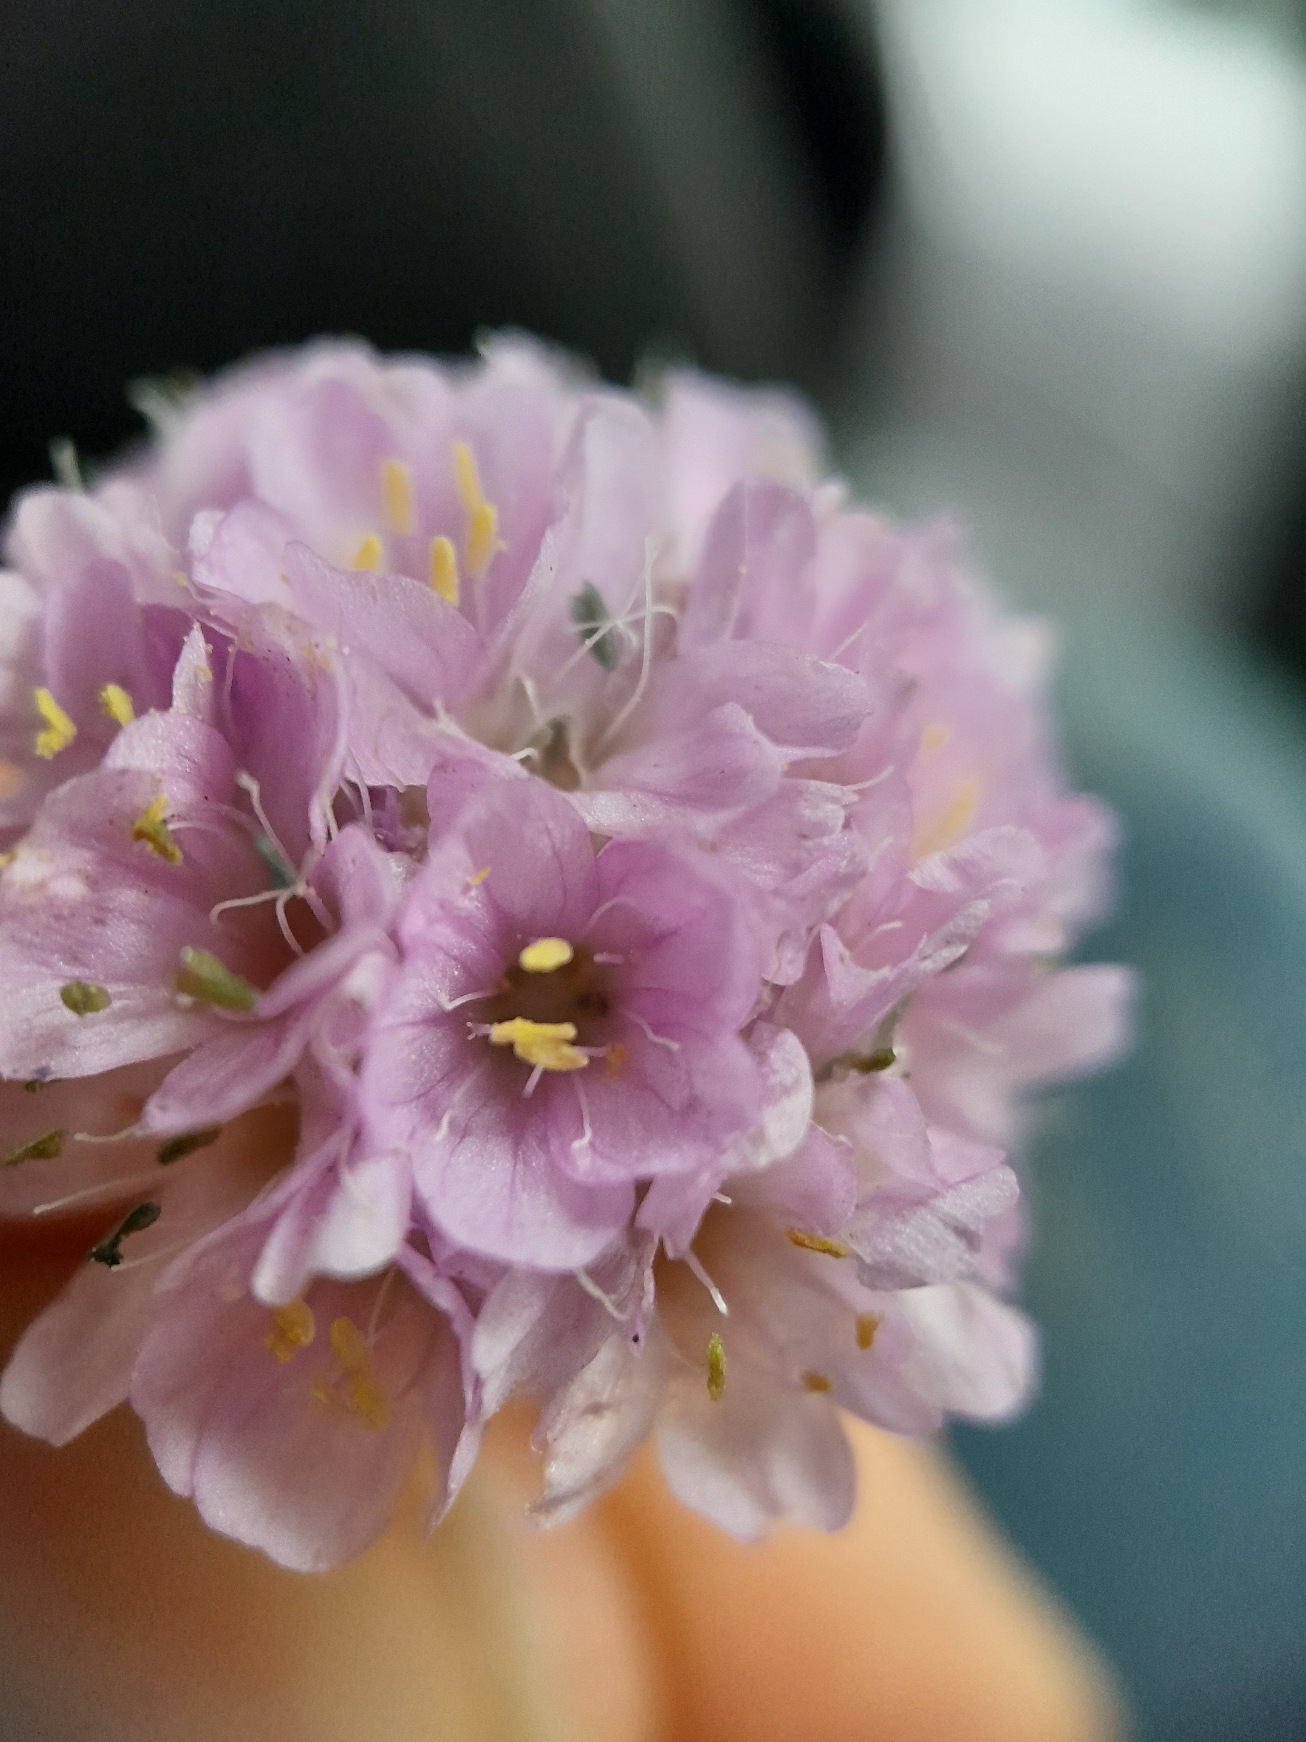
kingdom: Plantae
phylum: Tracheophyta
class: Magnoliopsida
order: Caryophyllales
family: Plumbaginaceae
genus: Armeria
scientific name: Armeria maritima
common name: Engelskgræs
